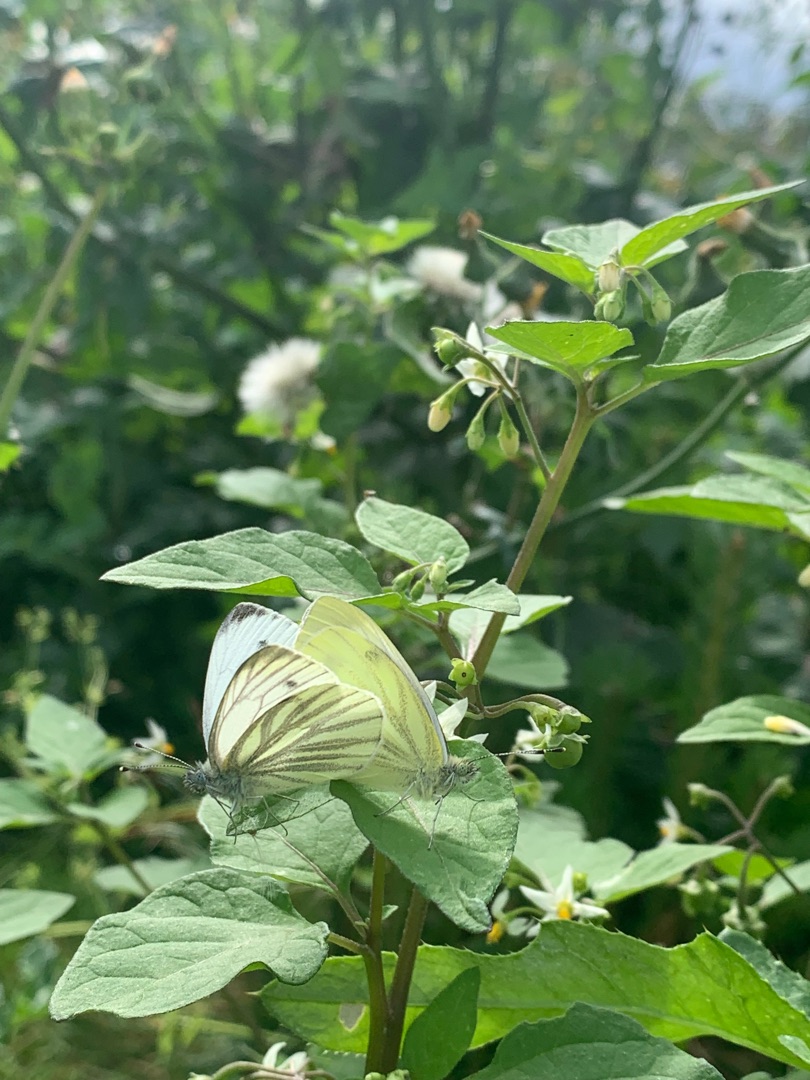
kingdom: Animalia
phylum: Arthropoda
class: Insecta
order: Lepidoptera
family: Pieridae
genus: Pieris
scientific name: Pieris napi
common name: Grønåret kålsommerfugl
